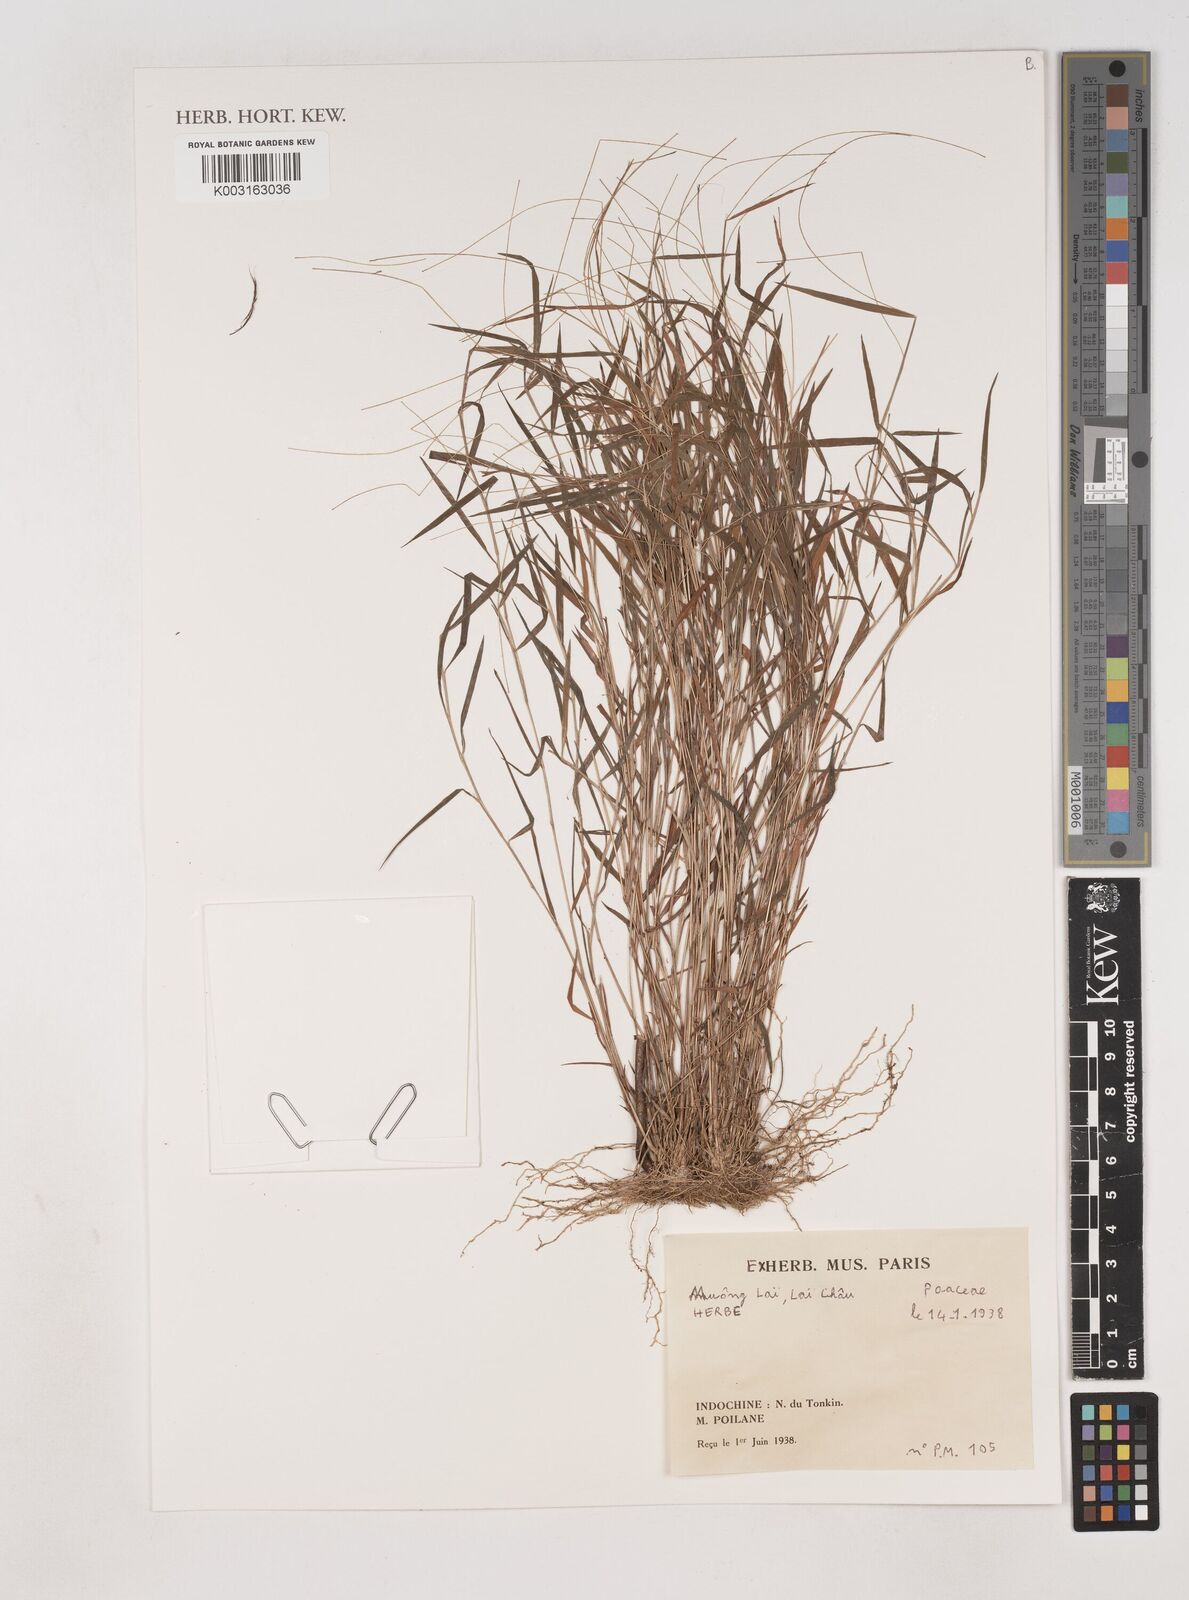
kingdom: Plantae
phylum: Tracheophyta
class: Liliopsida
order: Poales
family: Poaceae
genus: Dichanthium
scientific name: Dichanthium mucronulatum
